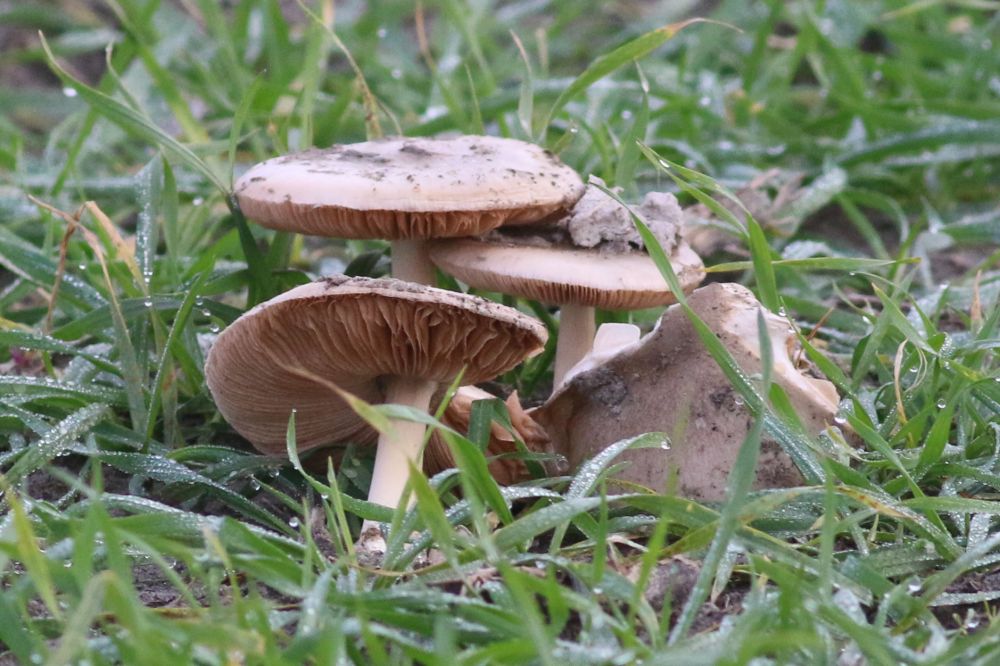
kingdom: Fungi
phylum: Basidiomycota
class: Agaricomycetes
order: Agaricales
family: Pluteaceae
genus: Volvopluteus
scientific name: Volvopluteus gloiocephalus
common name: høj posesvamp
